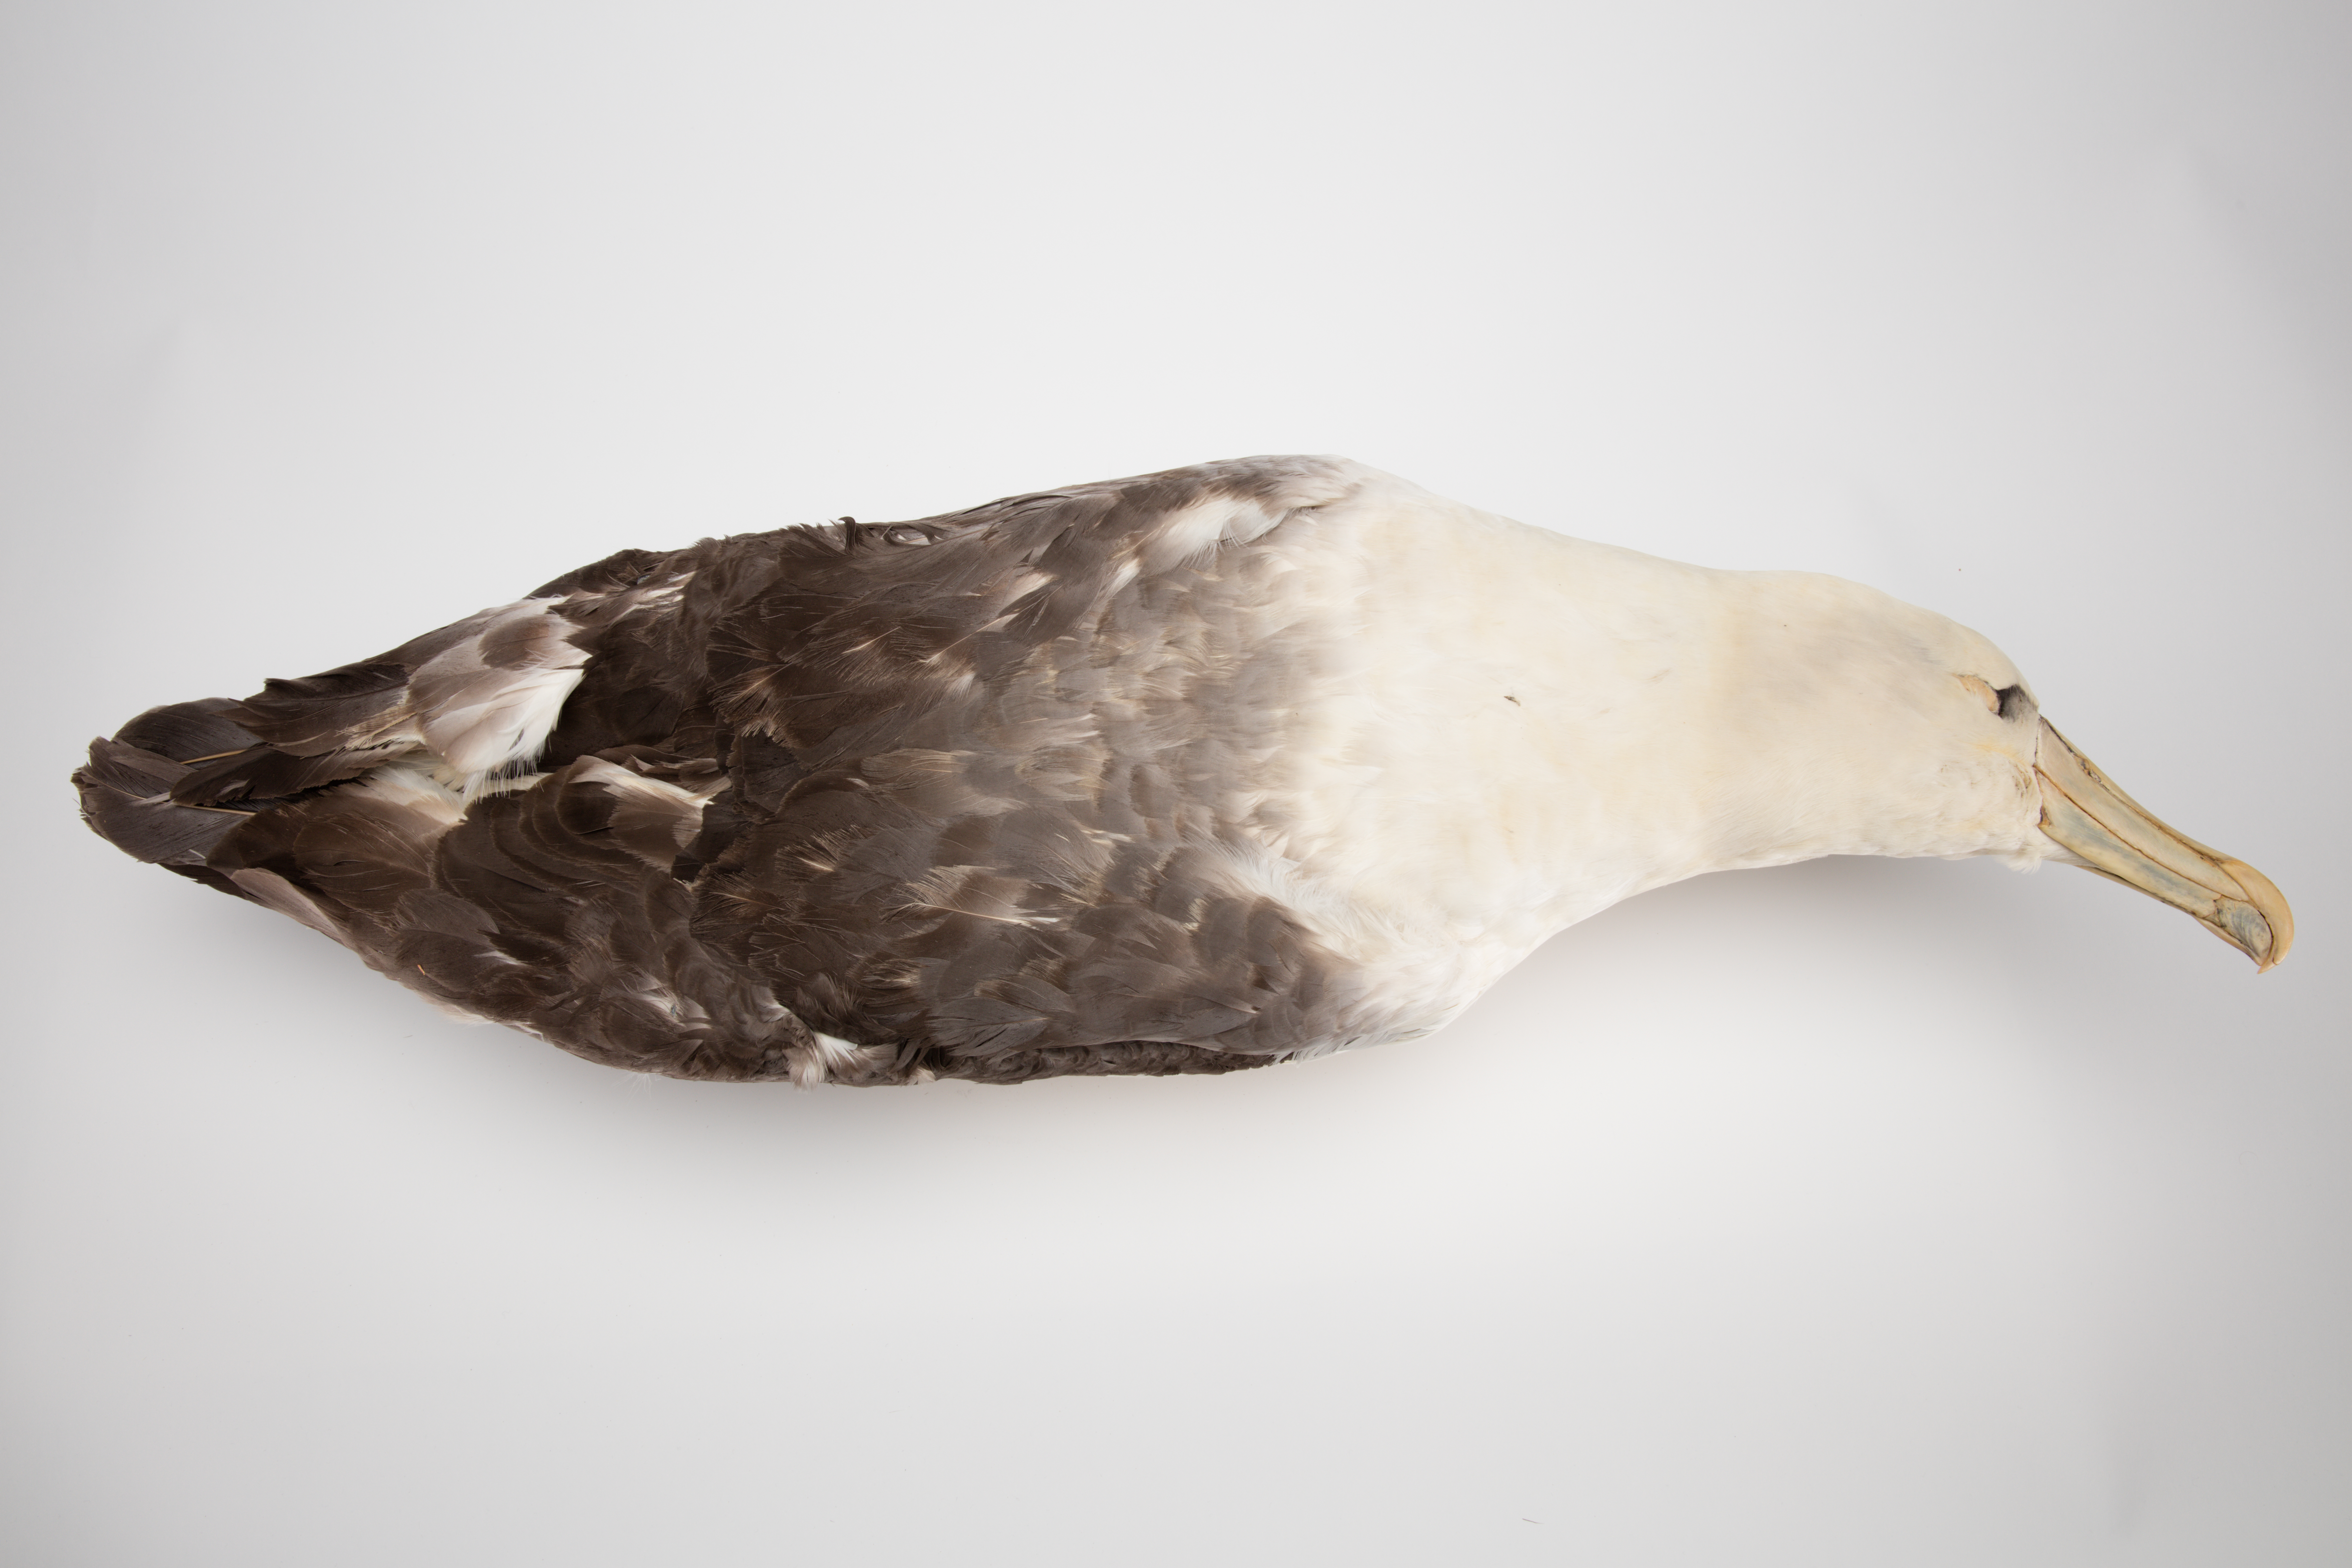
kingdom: Animalia
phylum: Chordata
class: Aves
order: Procellariiformes
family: Diomedeidae
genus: Thalassarche
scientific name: Thalassarche cauta
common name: Shy albatross
